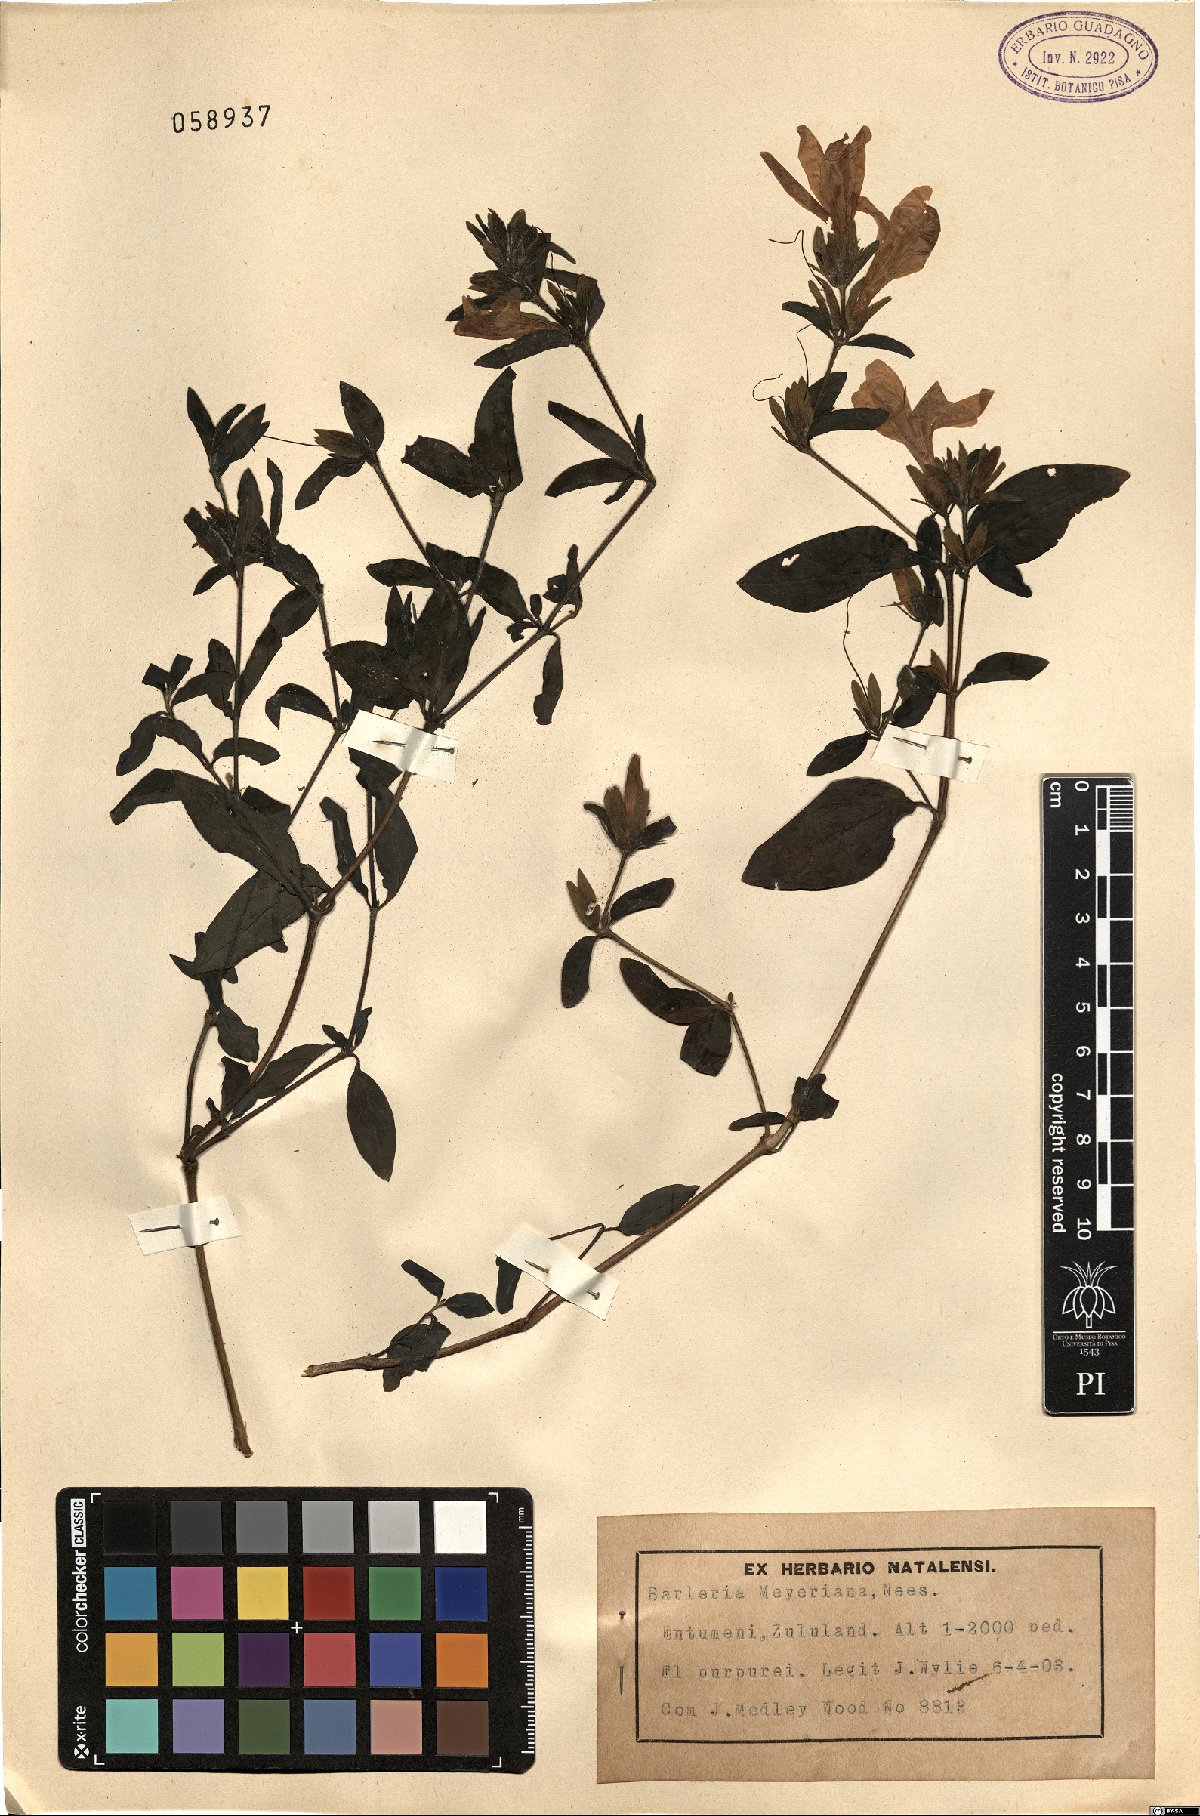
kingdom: Plantae
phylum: Tracheophyta
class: Magnoliopsida
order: Lamiales
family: Acanthaceae
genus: Barleria
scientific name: Barleria meyeriana
